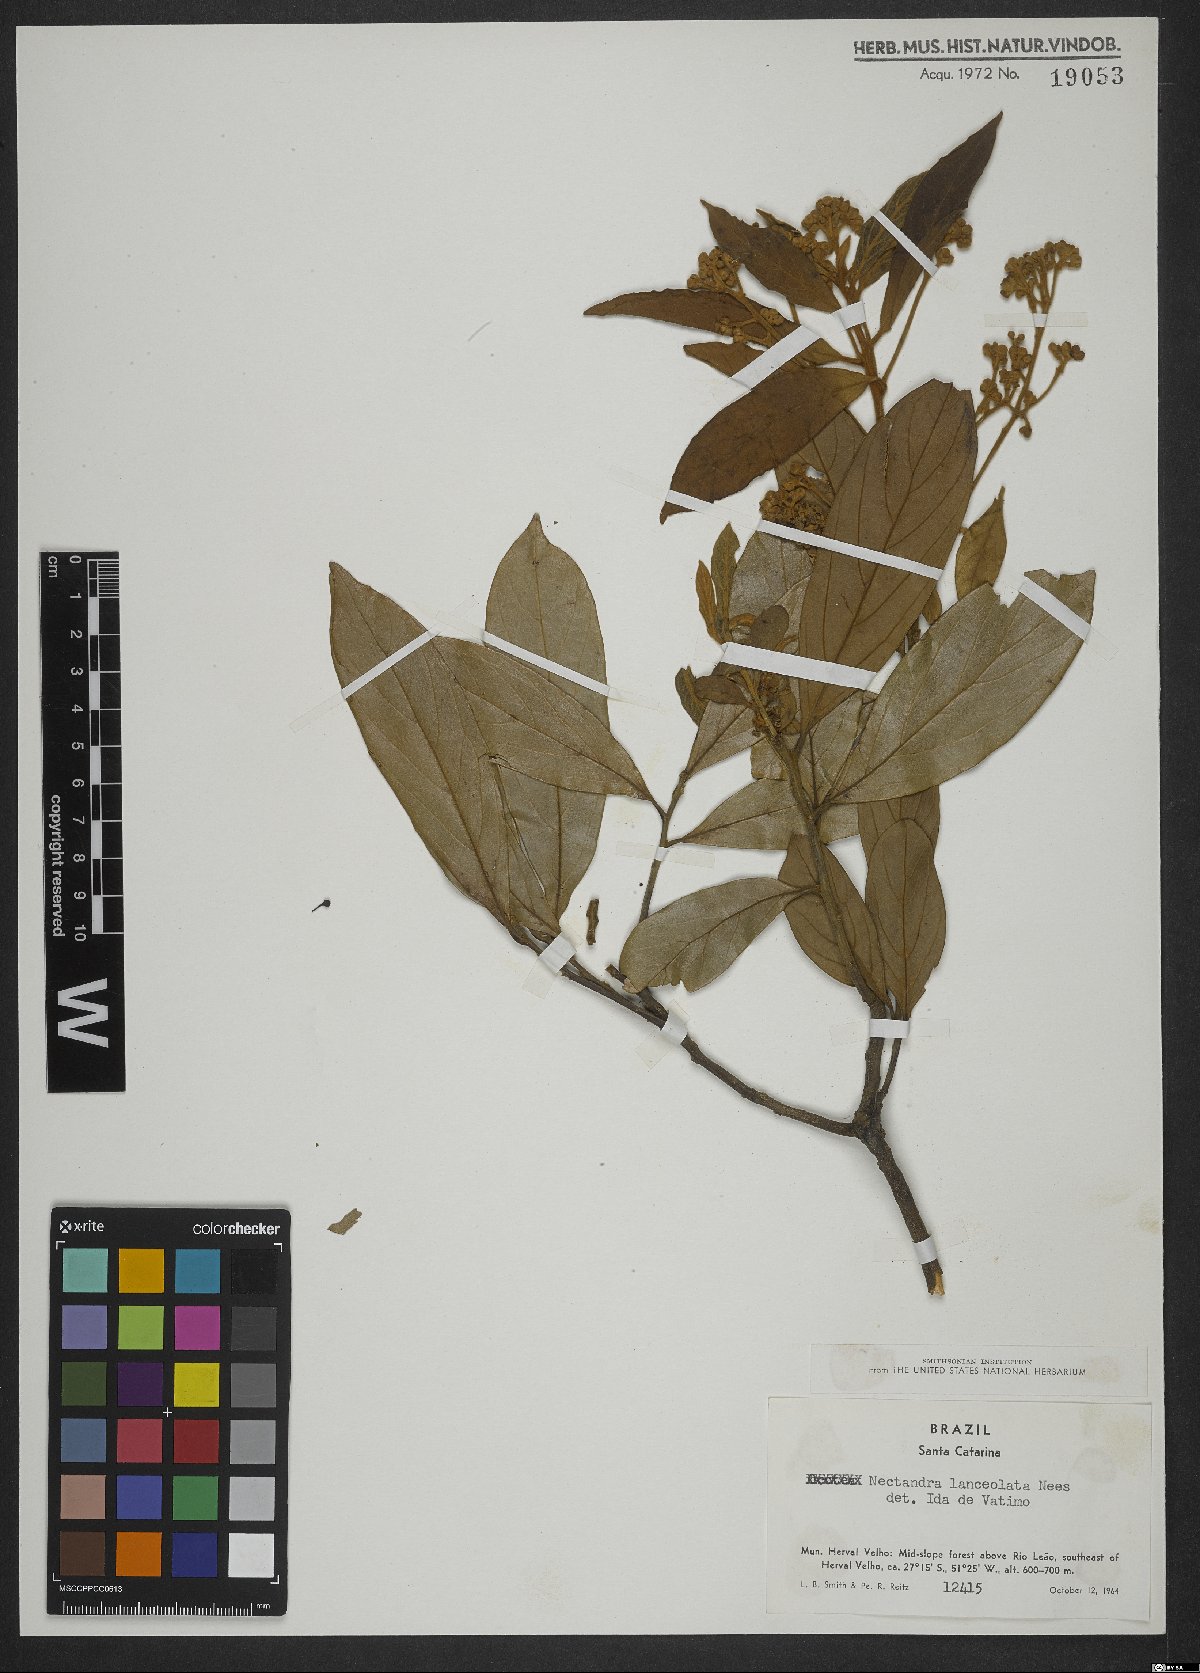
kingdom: Plantae
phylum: Tracheophyta
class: Magnoliopsida
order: Laurales
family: Lauraceae
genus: Nectandra
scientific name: Nectandra lanceolata
